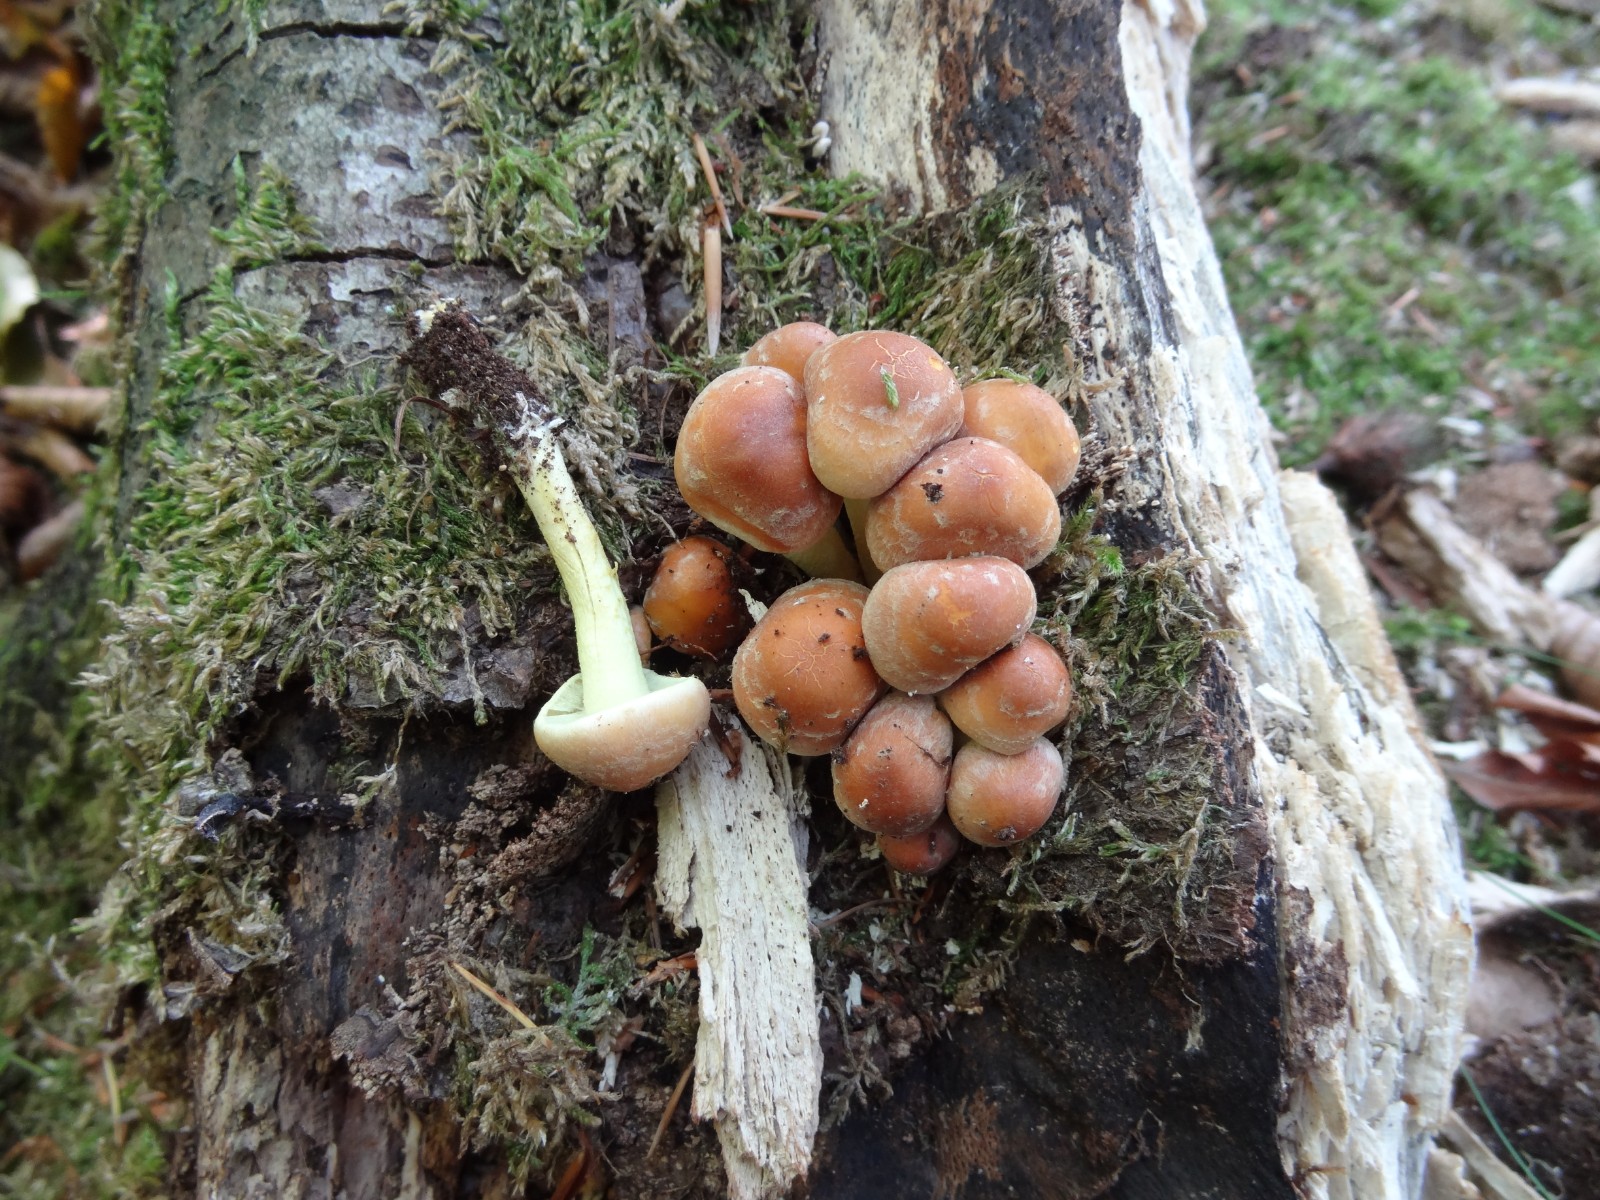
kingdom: Fungi
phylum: Basidiomycota
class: Agaricomycetes
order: Agaricales
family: Strophariaceae
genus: Hypholoma
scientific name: Hypholoma fasciculare
